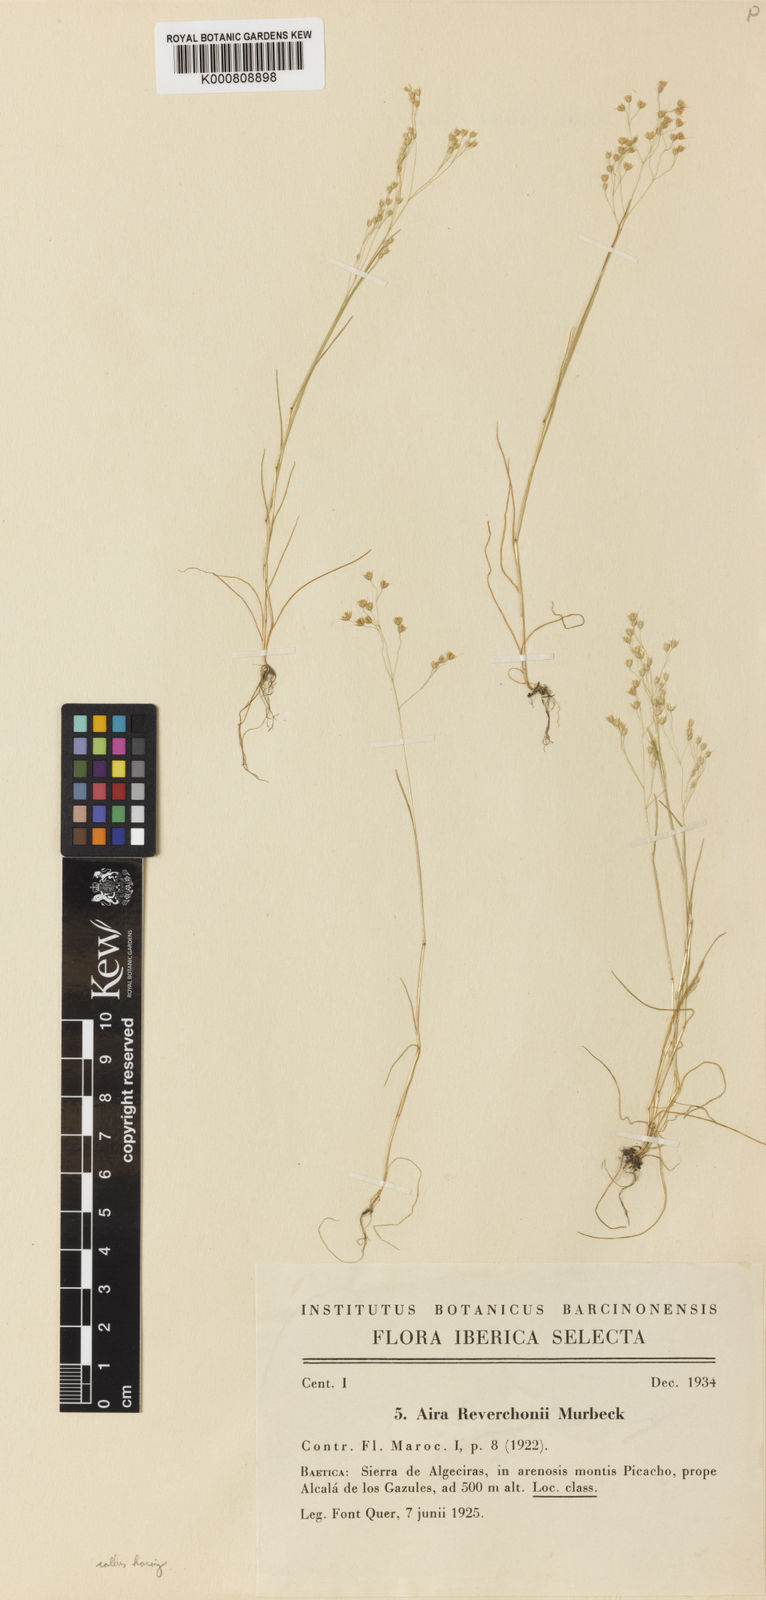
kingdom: Plantae
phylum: Tracheophyta
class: Liliopsida
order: Poales
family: Poaceae
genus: Aira
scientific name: Aira caryophyllea
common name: Silver hairgrass
